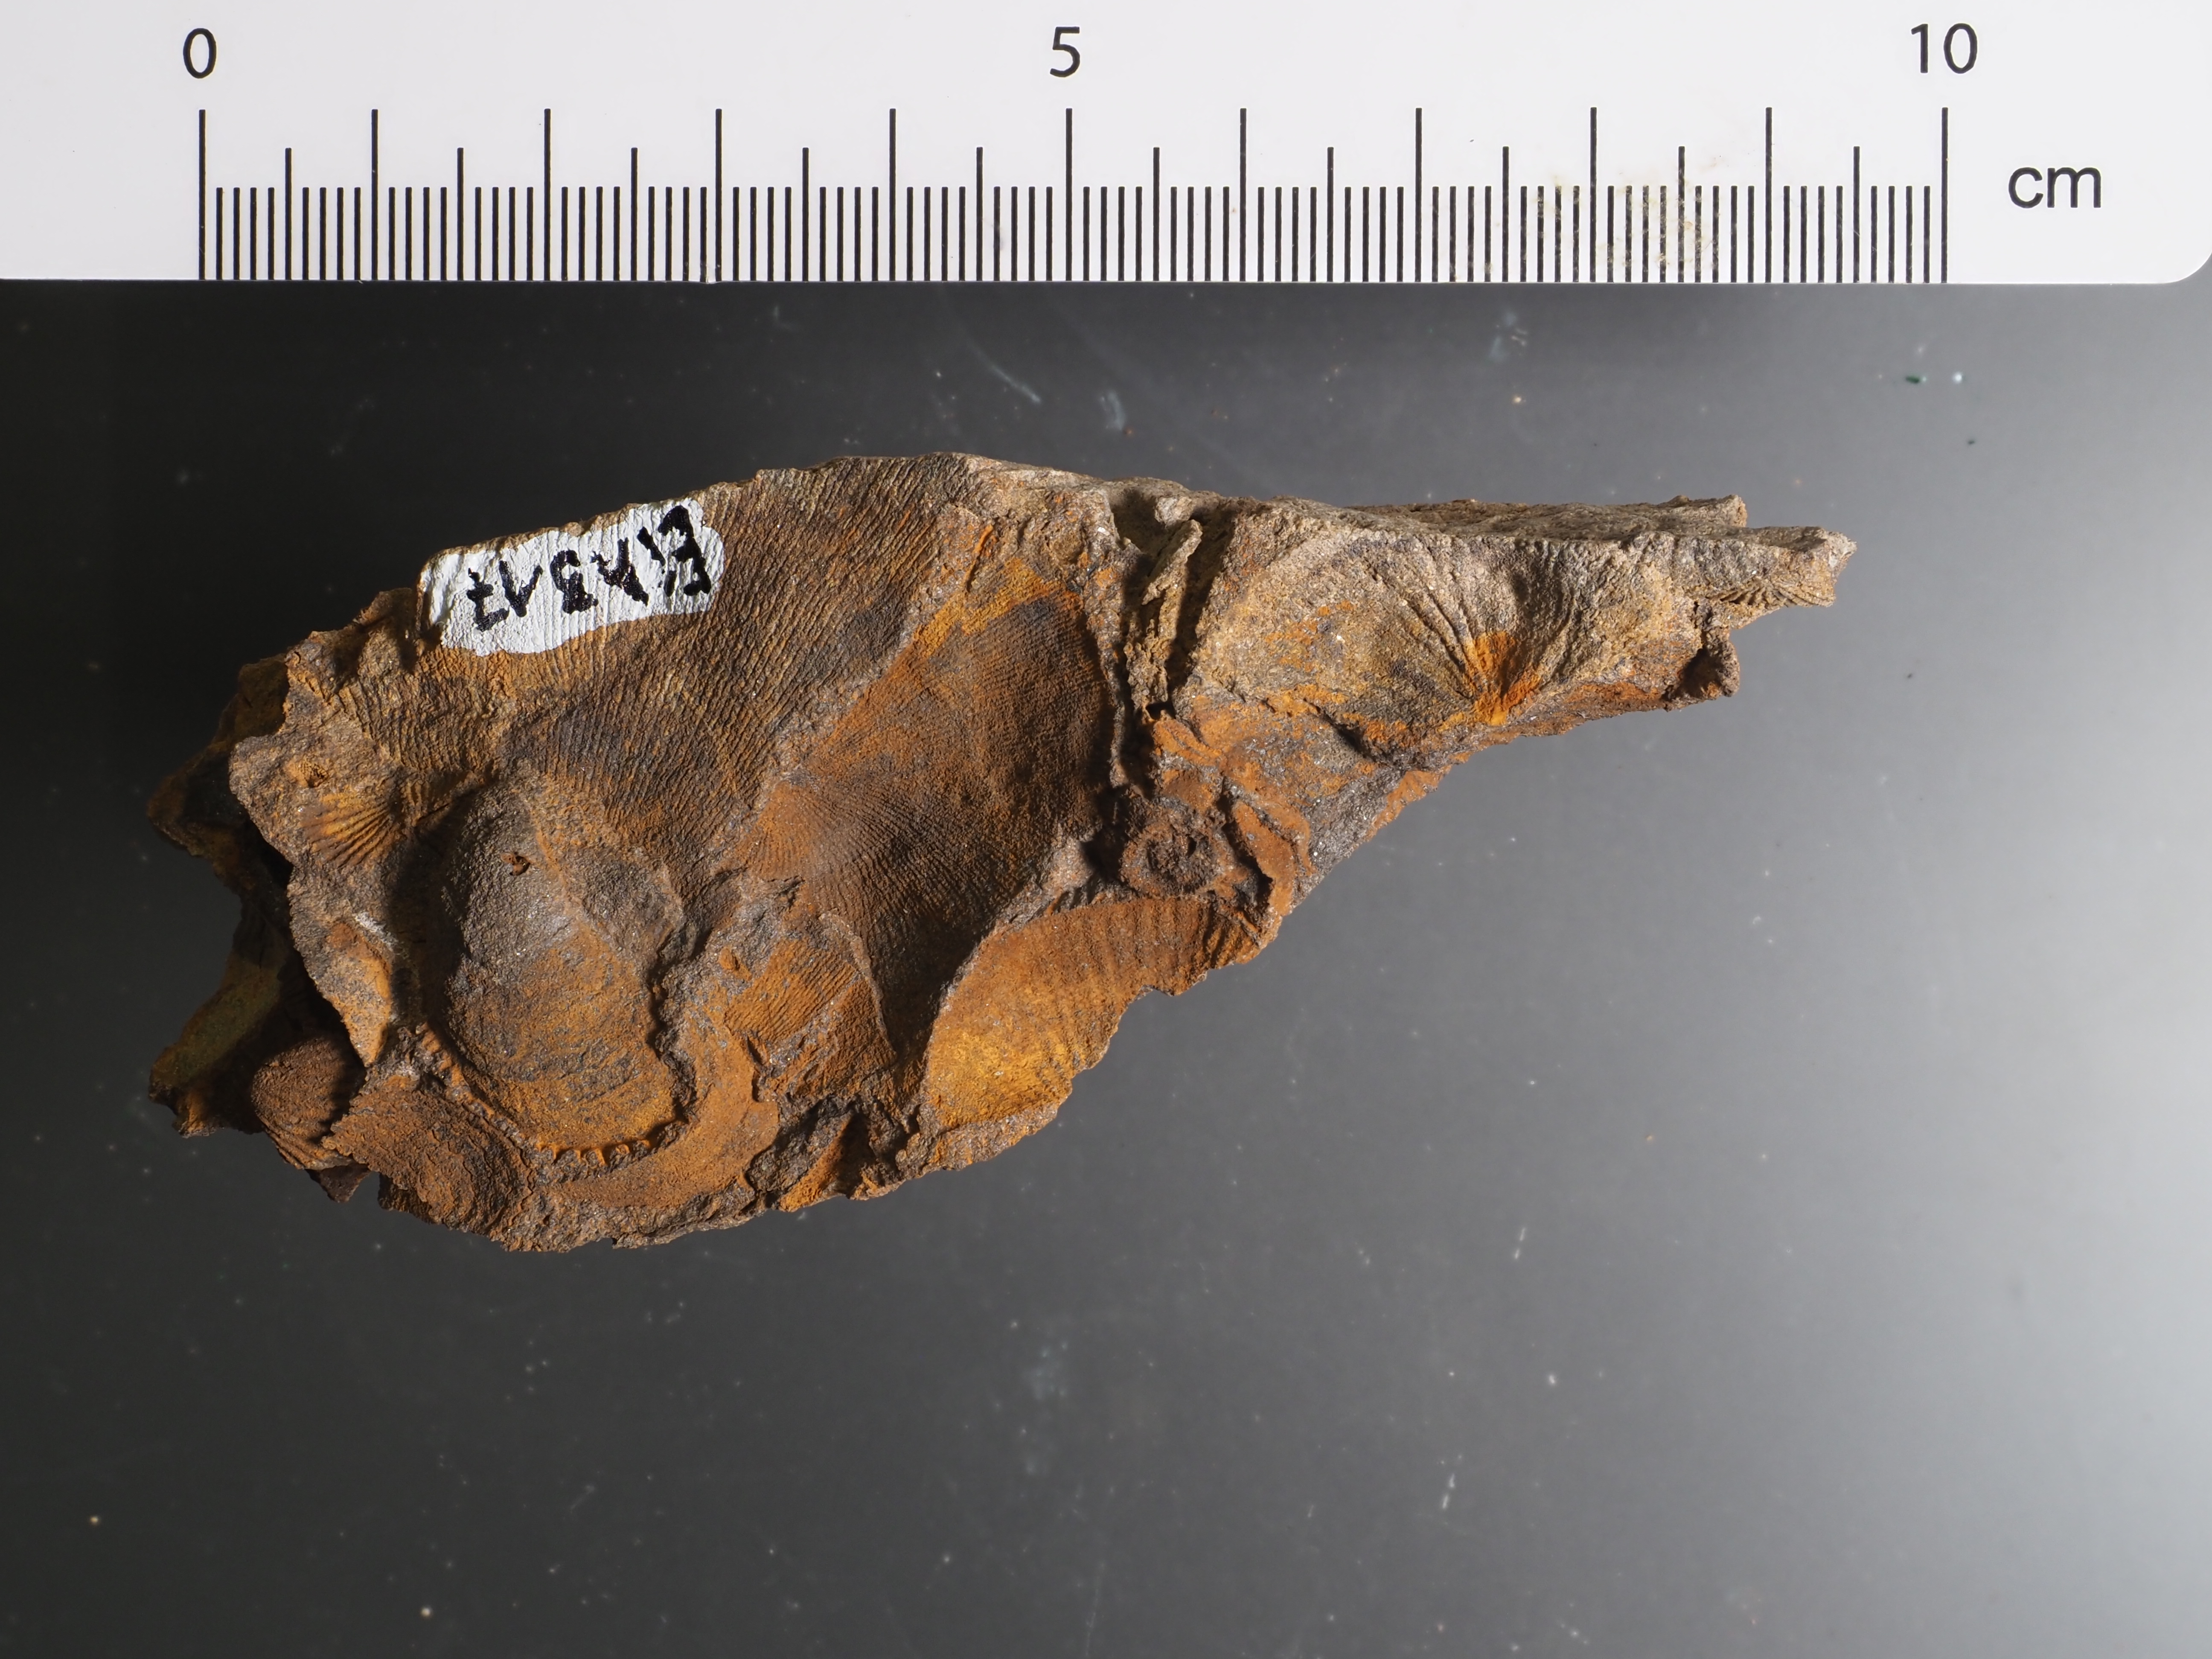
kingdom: Animalia
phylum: Mollusca
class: Bivalvia
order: Ostreida
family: Pterineidae
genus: Leptodesma
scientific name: Leptodesma
